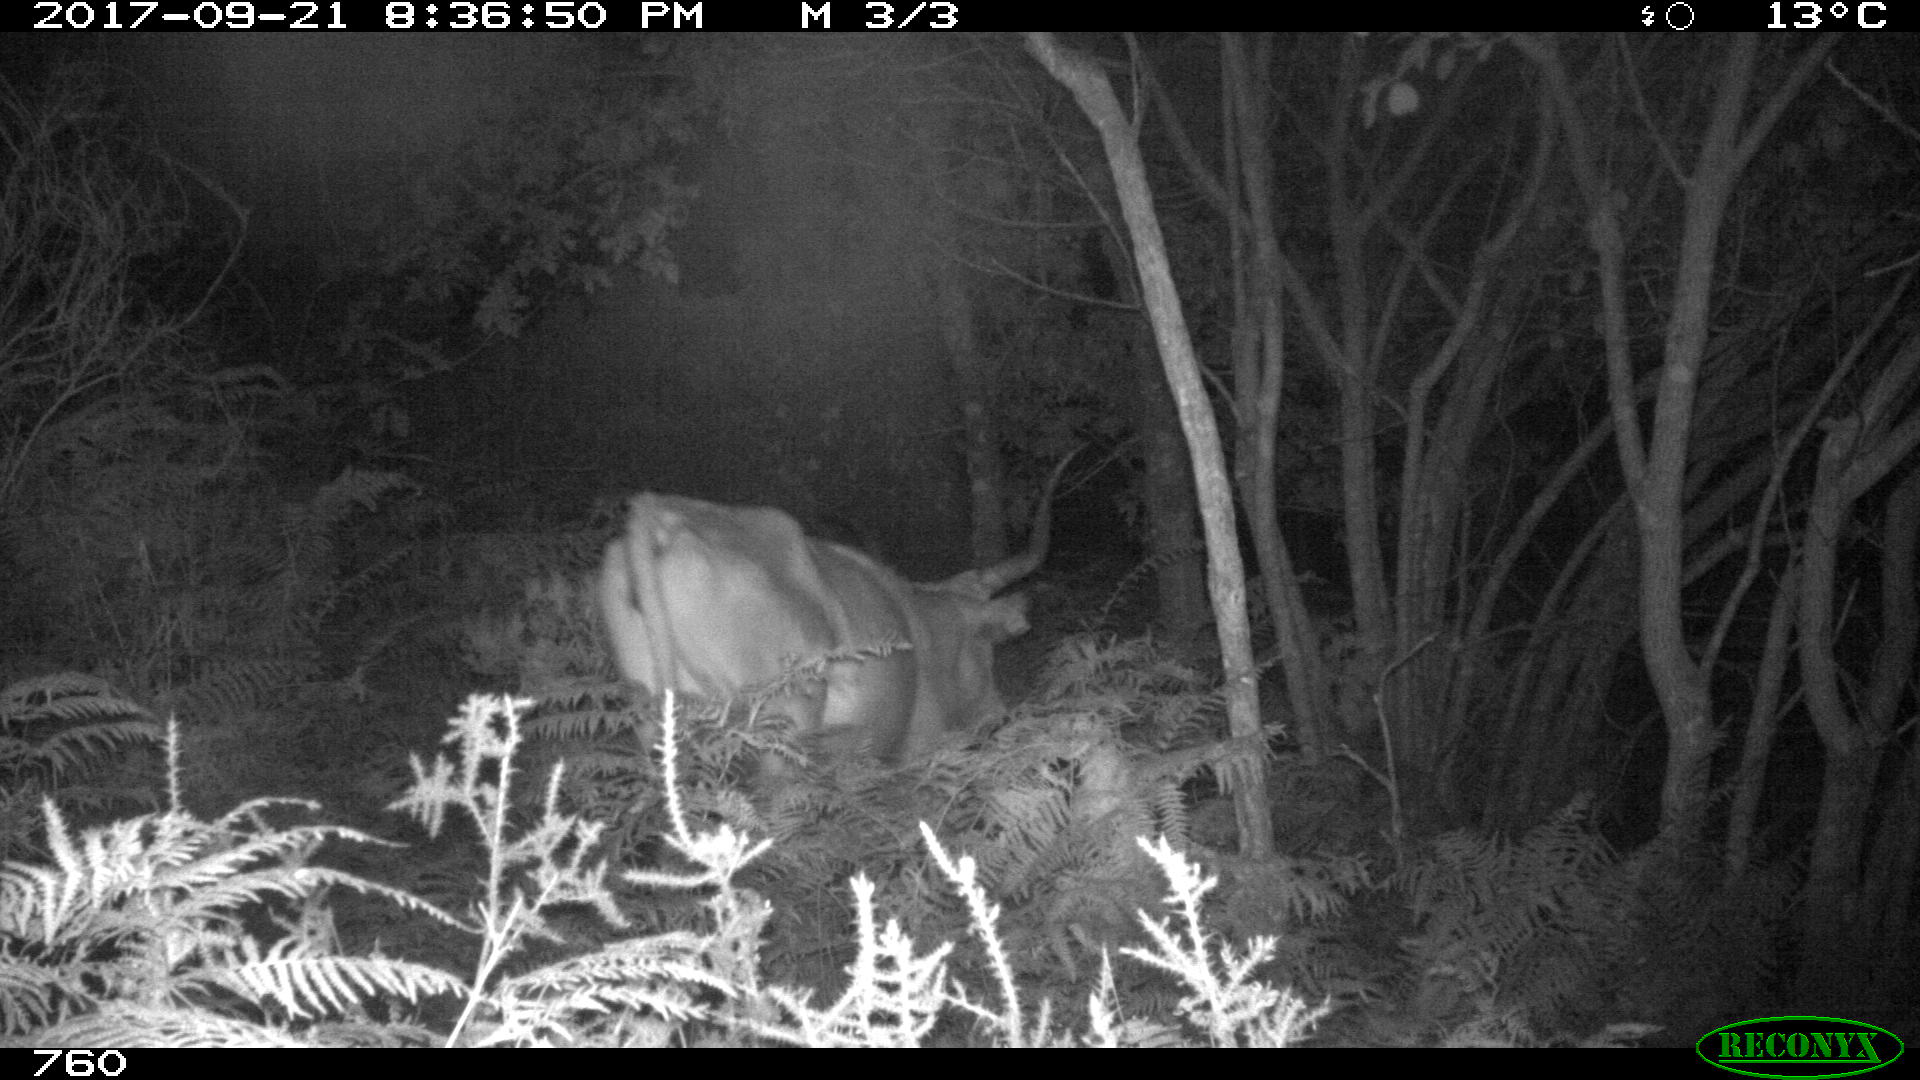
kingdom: Animalia
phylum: Chordata
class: Mammalia
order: Artiodactyla
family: Bovidae
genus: Bos
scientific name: Bos taurus
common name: Domesticated cattle
